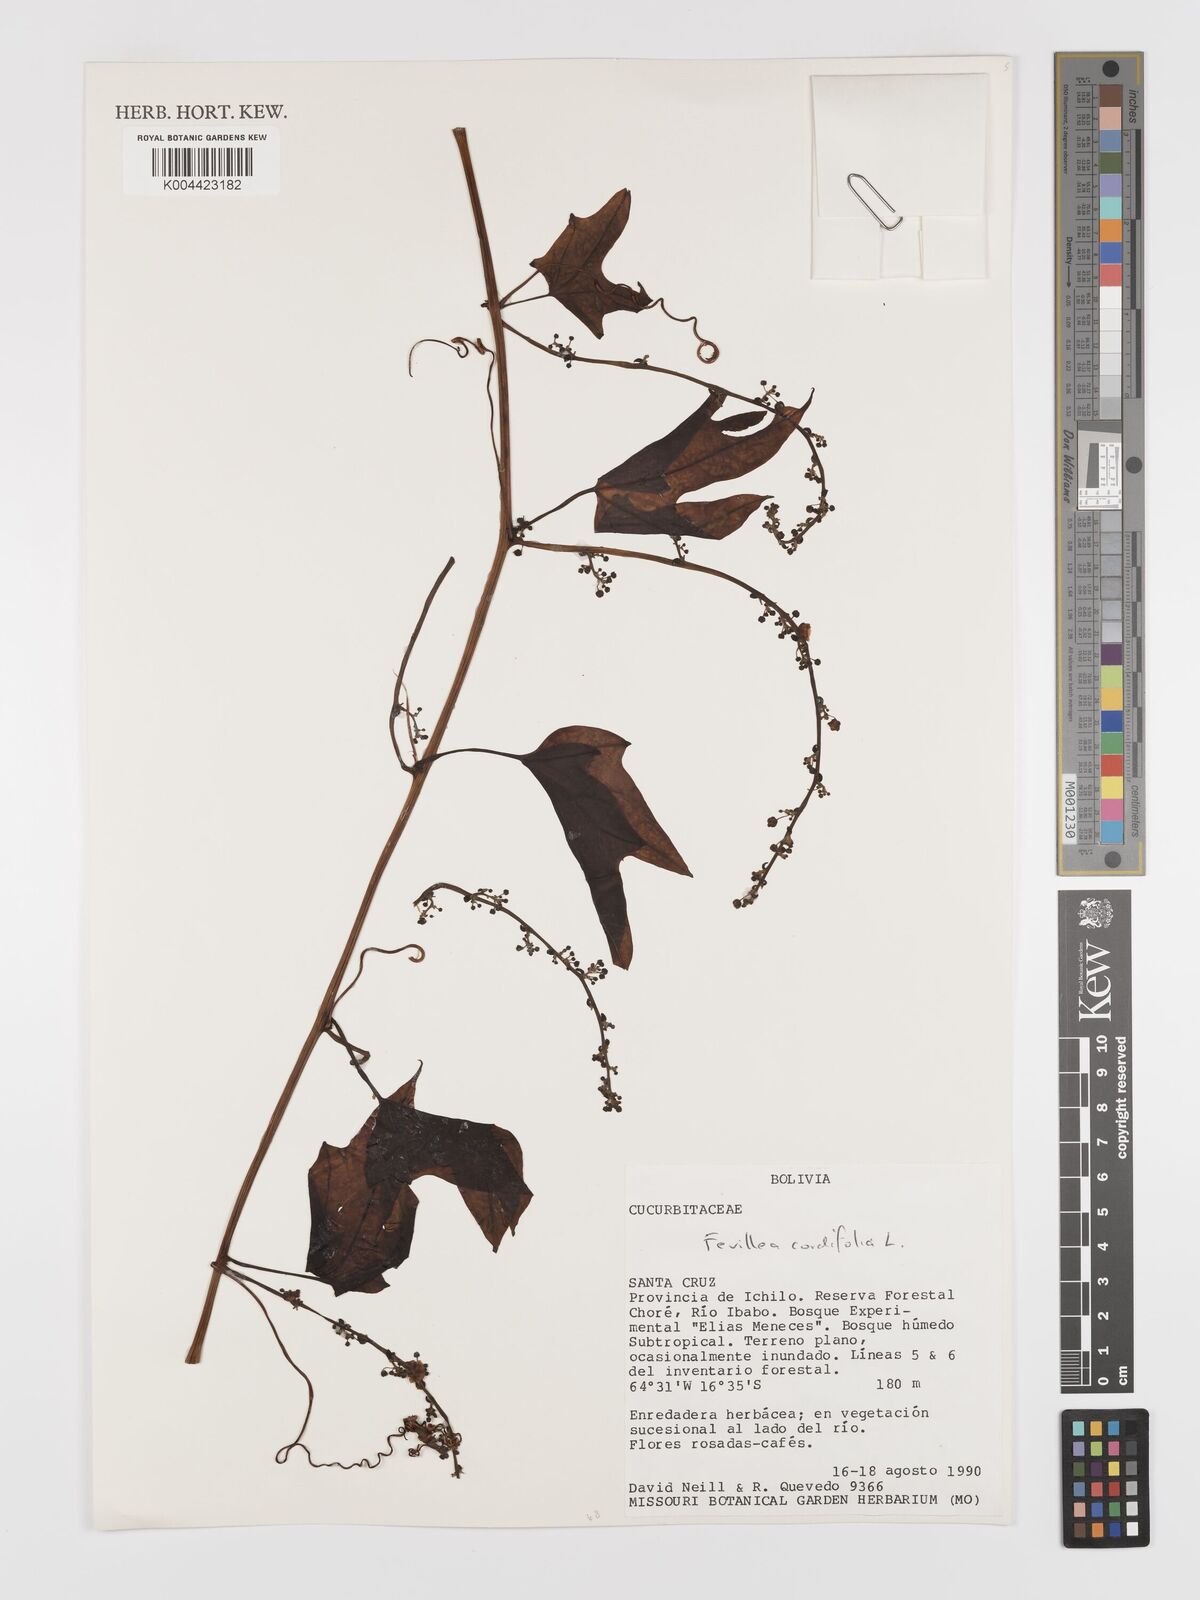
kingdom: Plantae
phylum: Tracheophyta
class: Magnoliopsida
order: Cucurbitales
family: Cucurbitaceae
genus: Fevillea
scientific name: Fevillea
